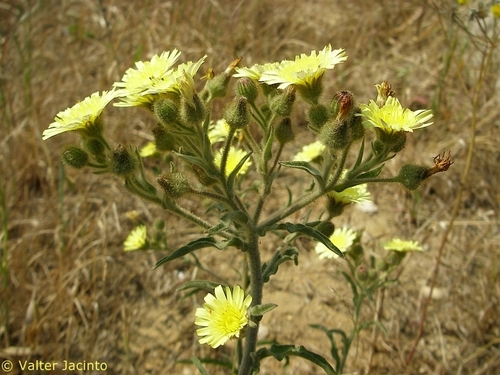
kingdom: Plantae
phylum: Tracheophyta
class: Magnoliopsida
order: Asterales
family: Asteraceae
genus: Andryala
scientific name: Andryala integrifolia
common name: Common andryala
